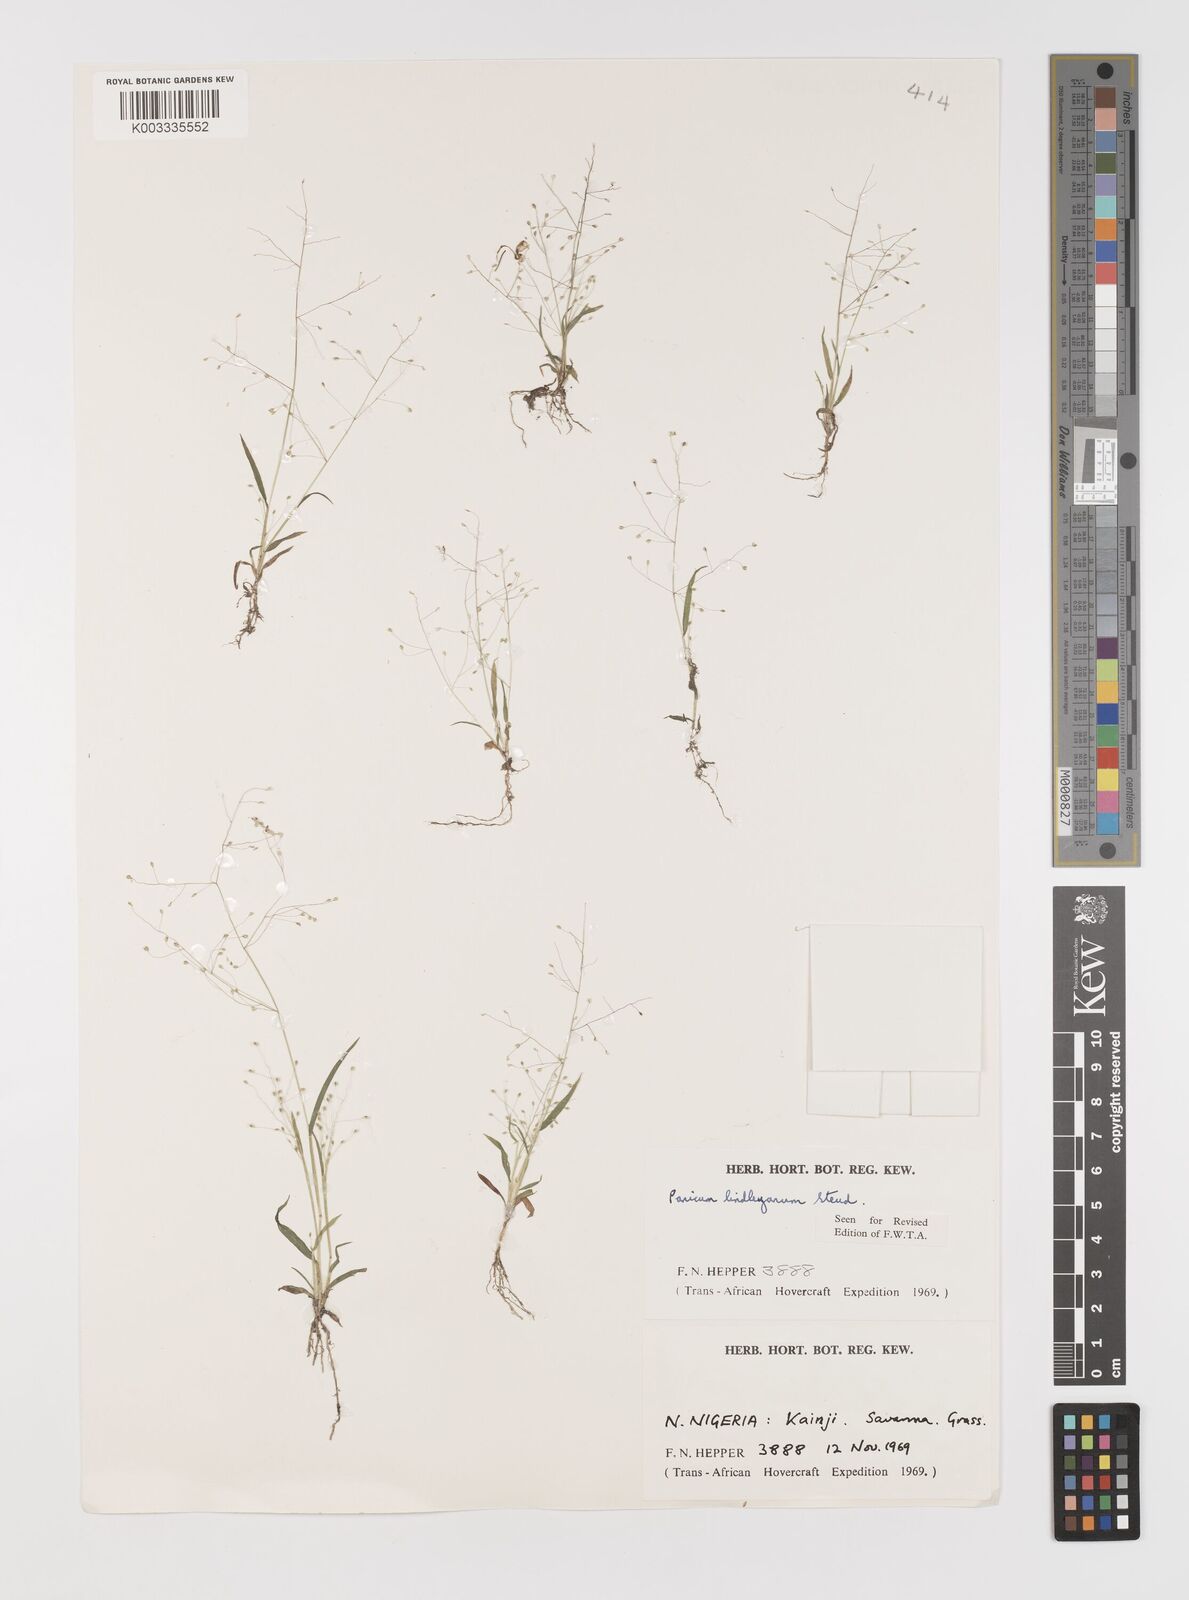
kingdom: Plantae
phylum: Tracheophyta
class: Liliopsida
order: Poales
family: Poaceae
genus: Trichanthecium
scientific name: Trichanthecium tenellum
